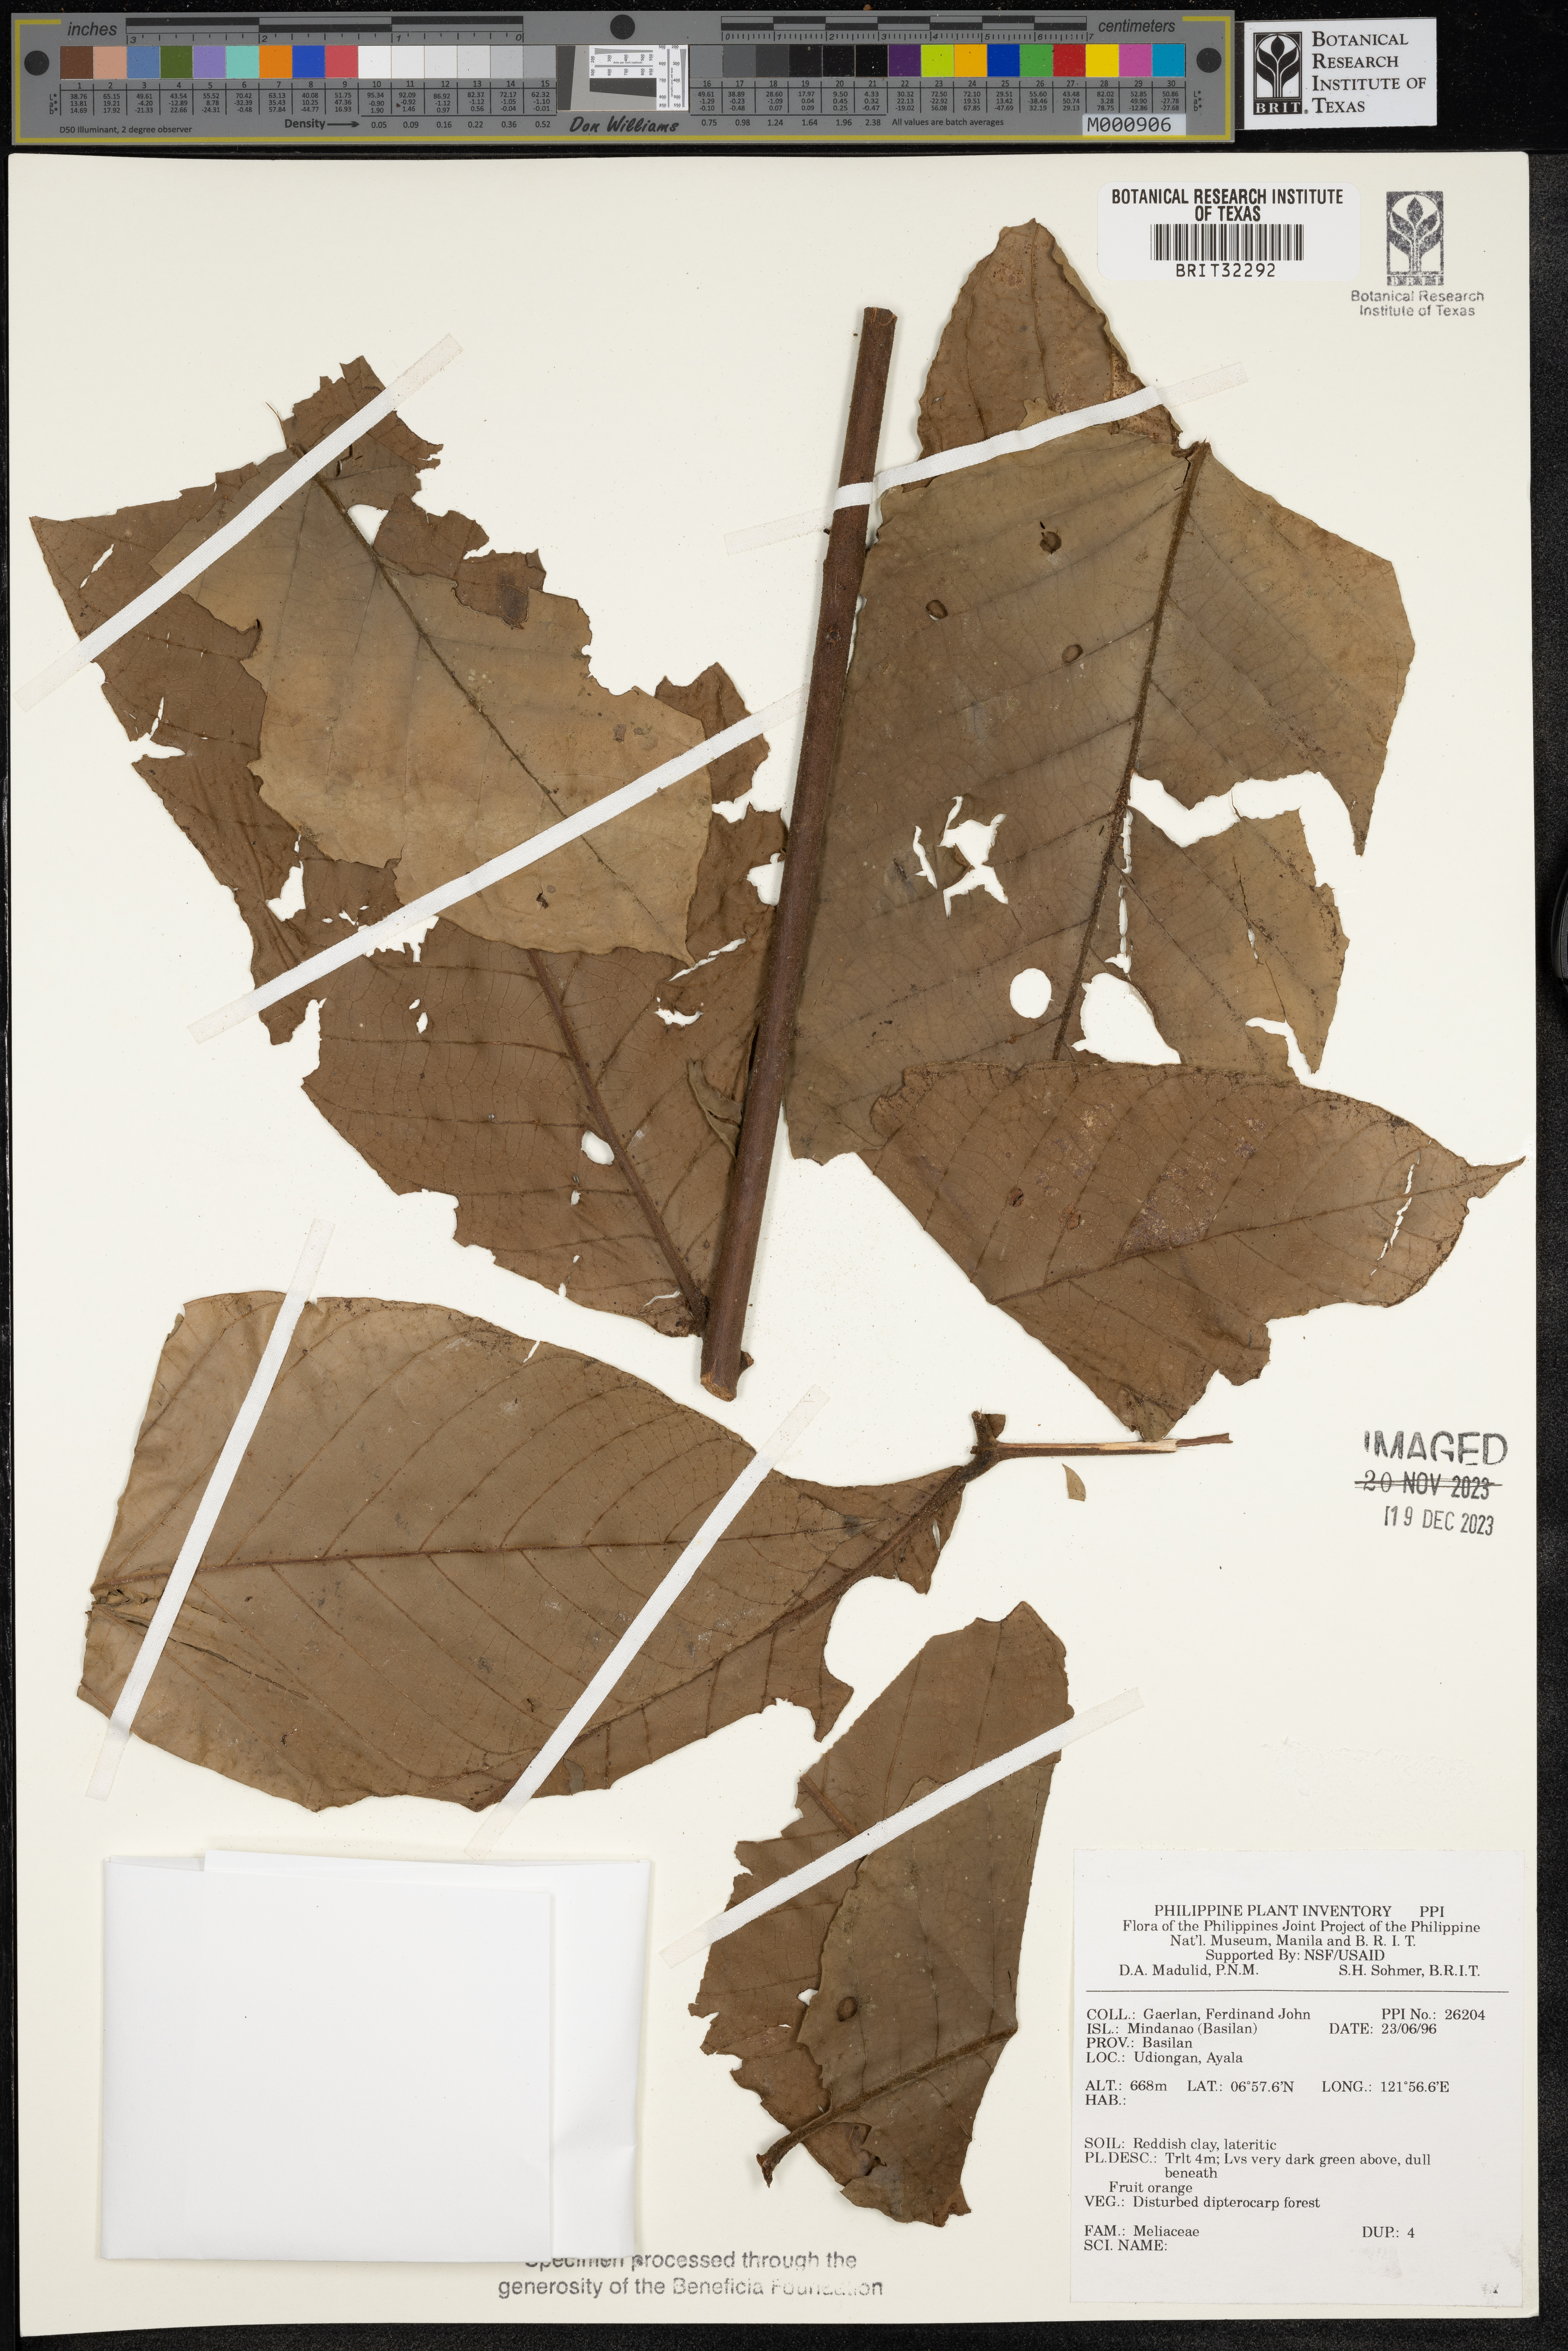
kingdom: Plantae
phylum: Tracheophyta
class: Magnoliopsida
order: Sapindales
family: Meliaceae
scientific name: Meliaceae
